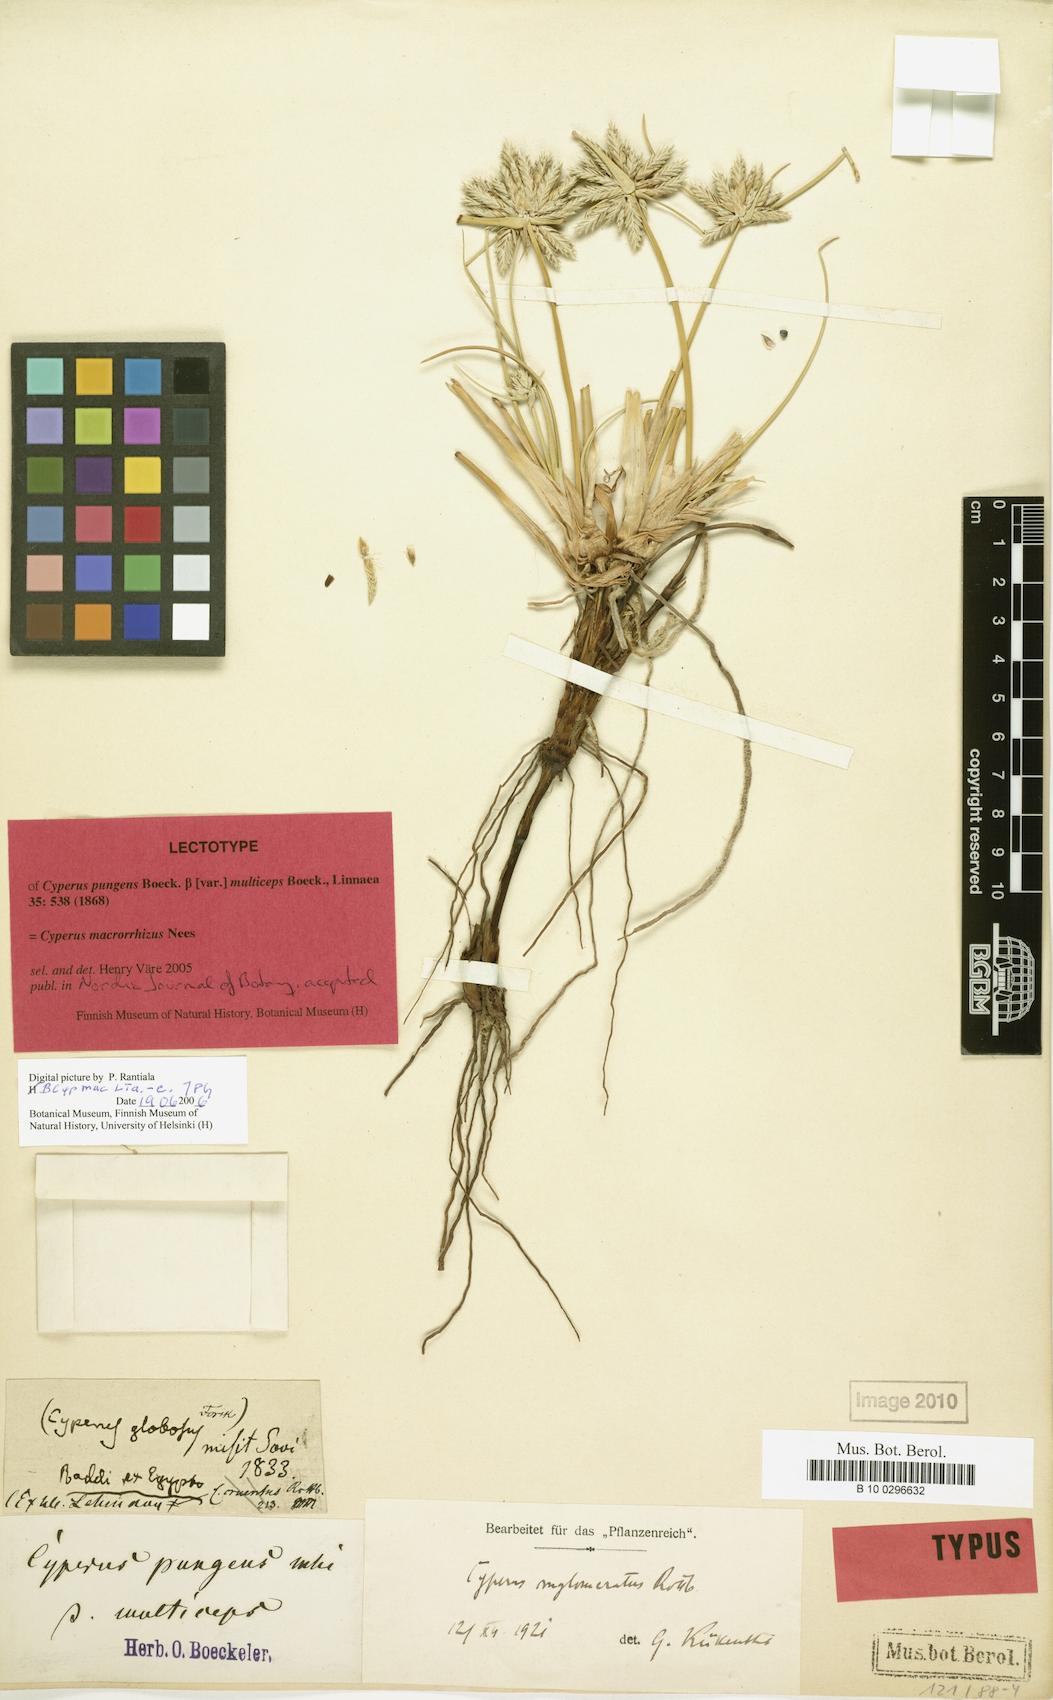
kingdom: Plantae
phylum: Tracheophyta
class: Liliopsida
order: Poales
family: Cyperaceae
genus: Cyperus
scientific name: Cyperus macrorrhizus
